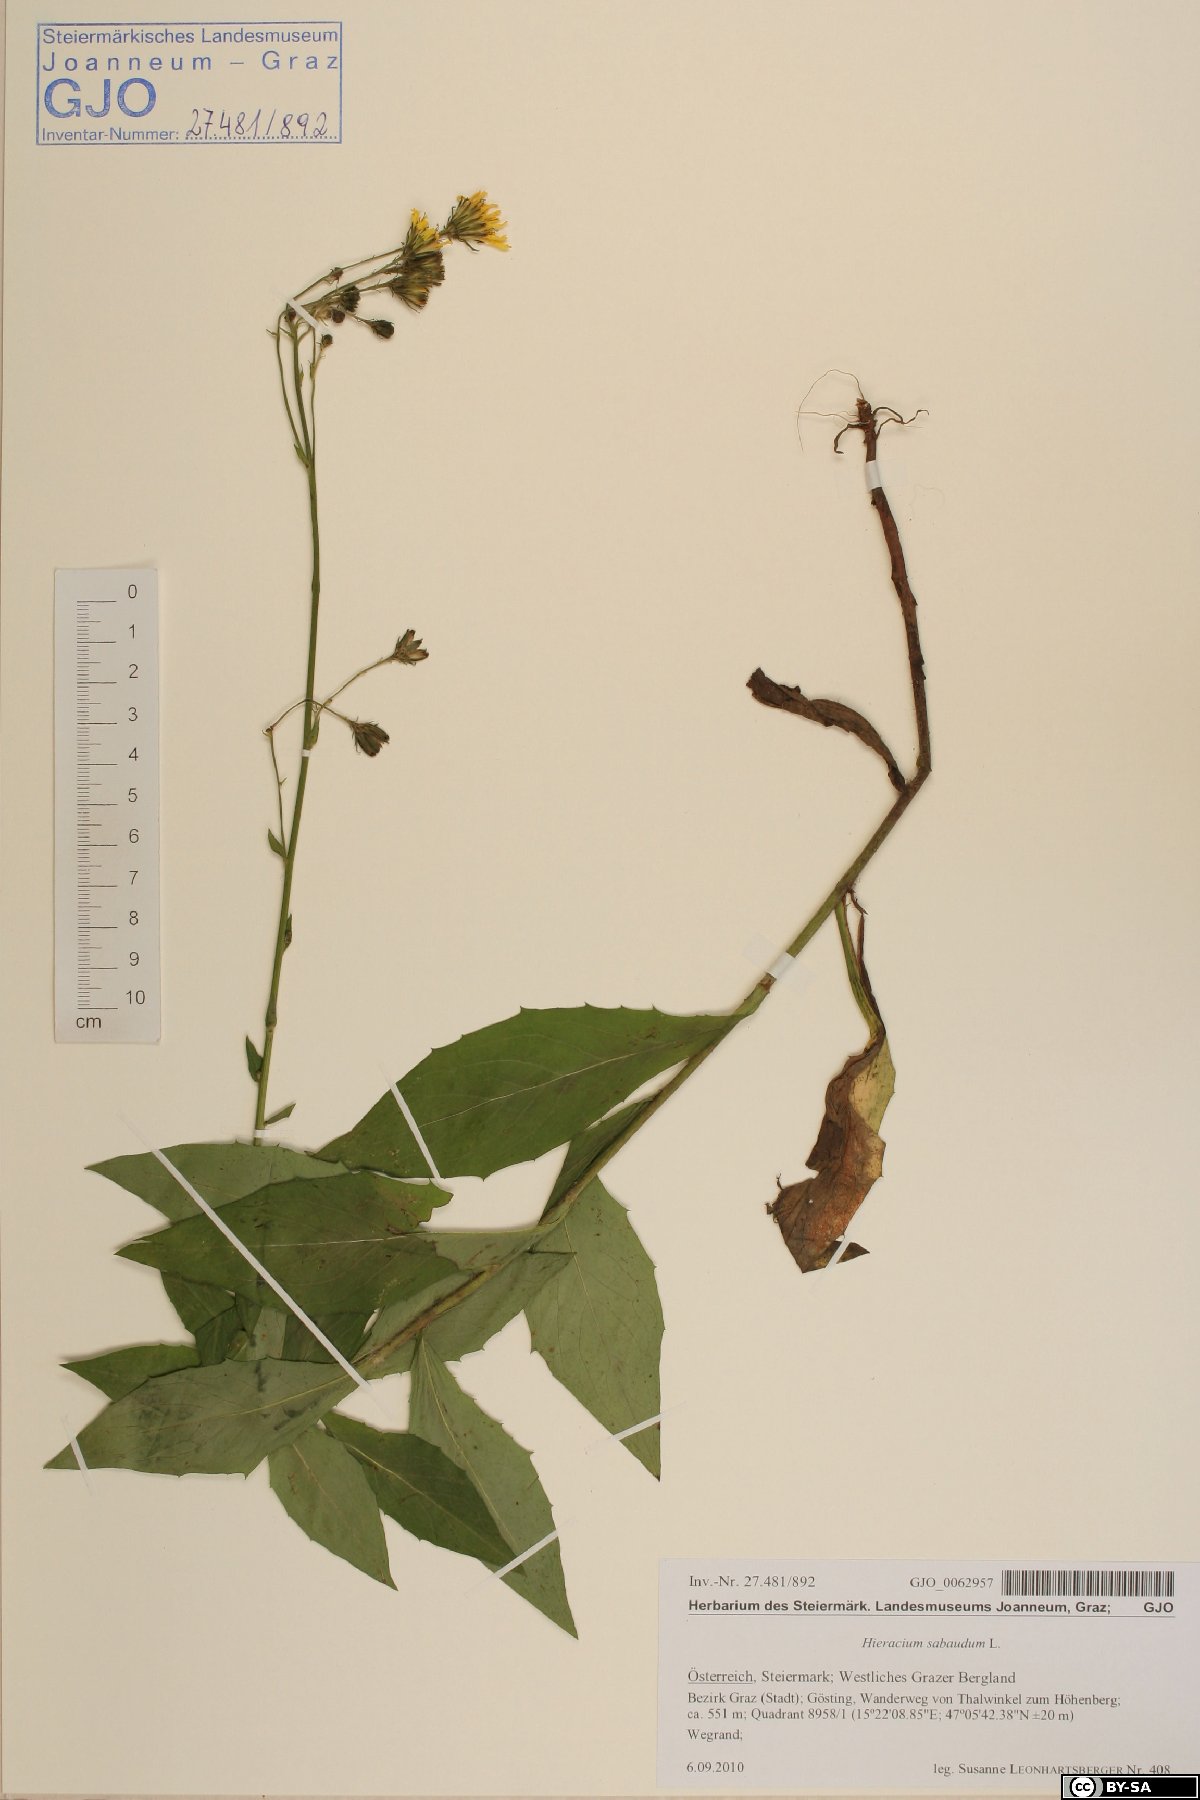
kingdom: Plantae
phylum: Tracheophyta
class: Magnoliopsida
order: Asterales
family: Asteraceae
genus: Hieracium
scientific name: Hieracium sabaudum
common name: New england hawkweed
